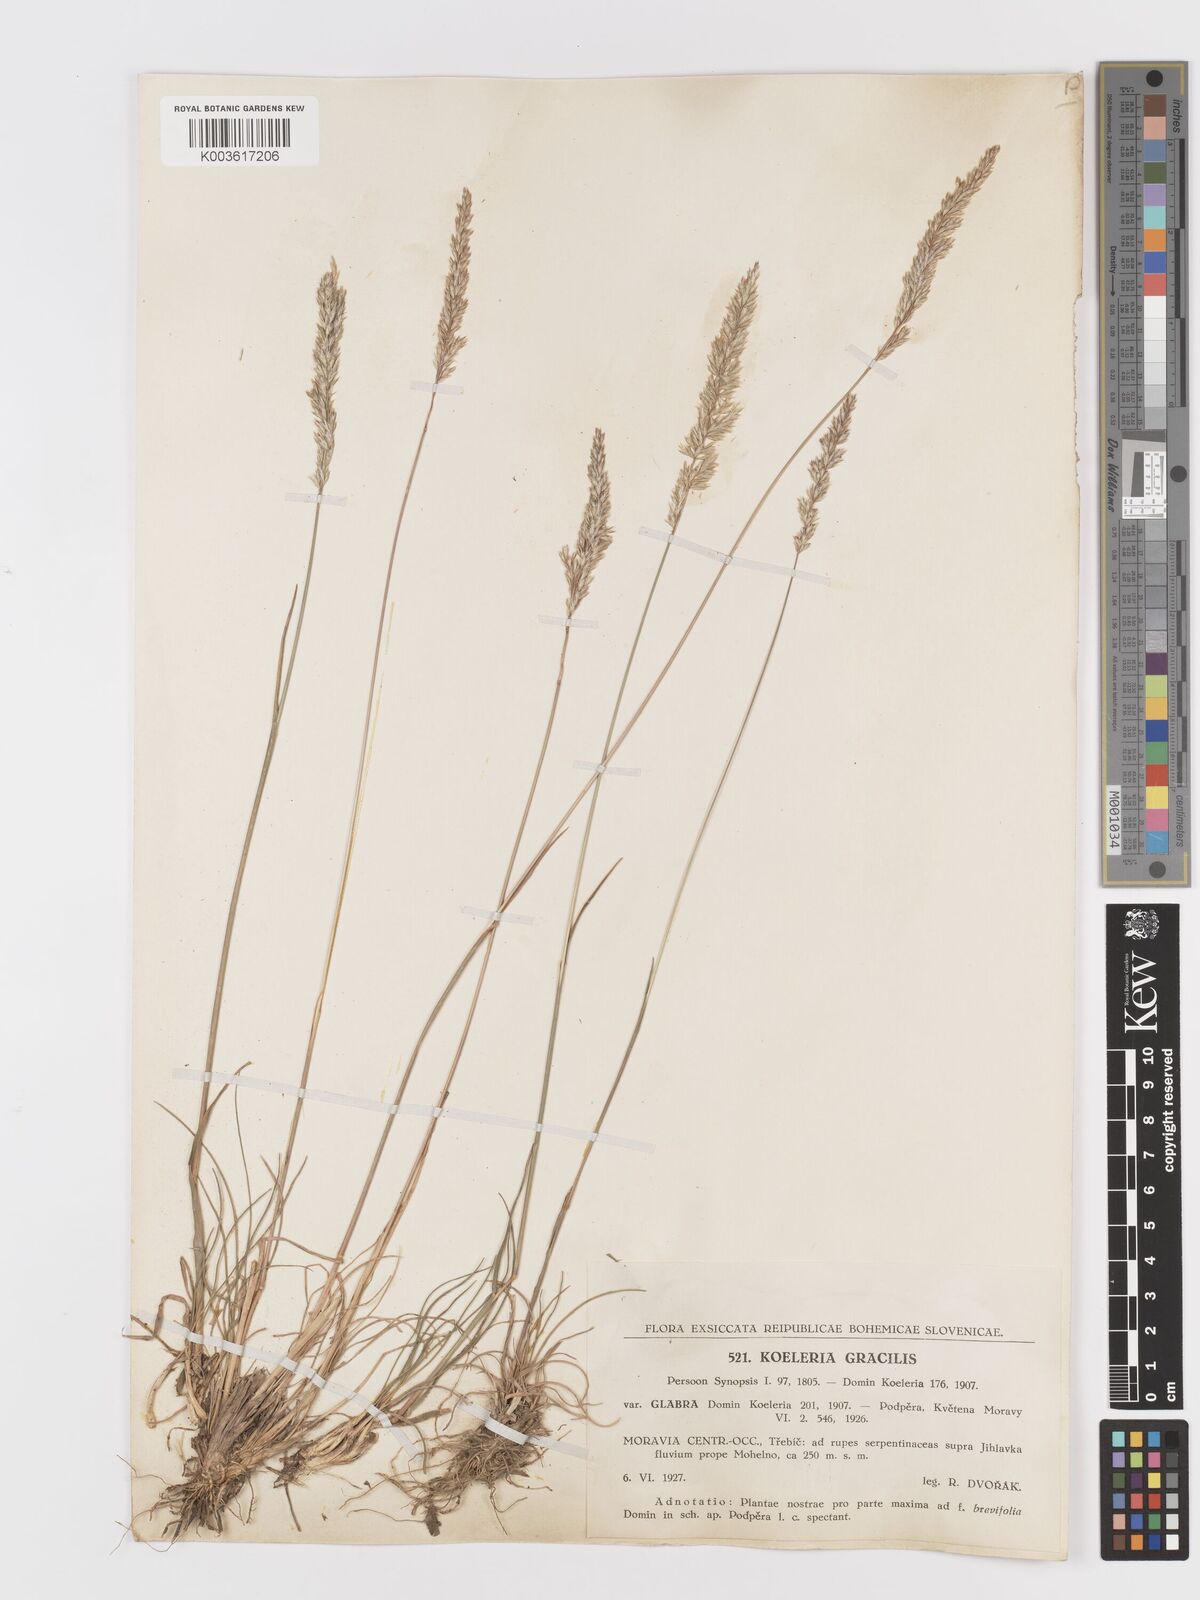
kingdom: Plantae
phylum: Tracheophyta
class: Liliopsida
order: Poales
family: Poaceae
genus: Koeleria
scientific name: Koeleria macrantha
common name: Crested hair-grass
